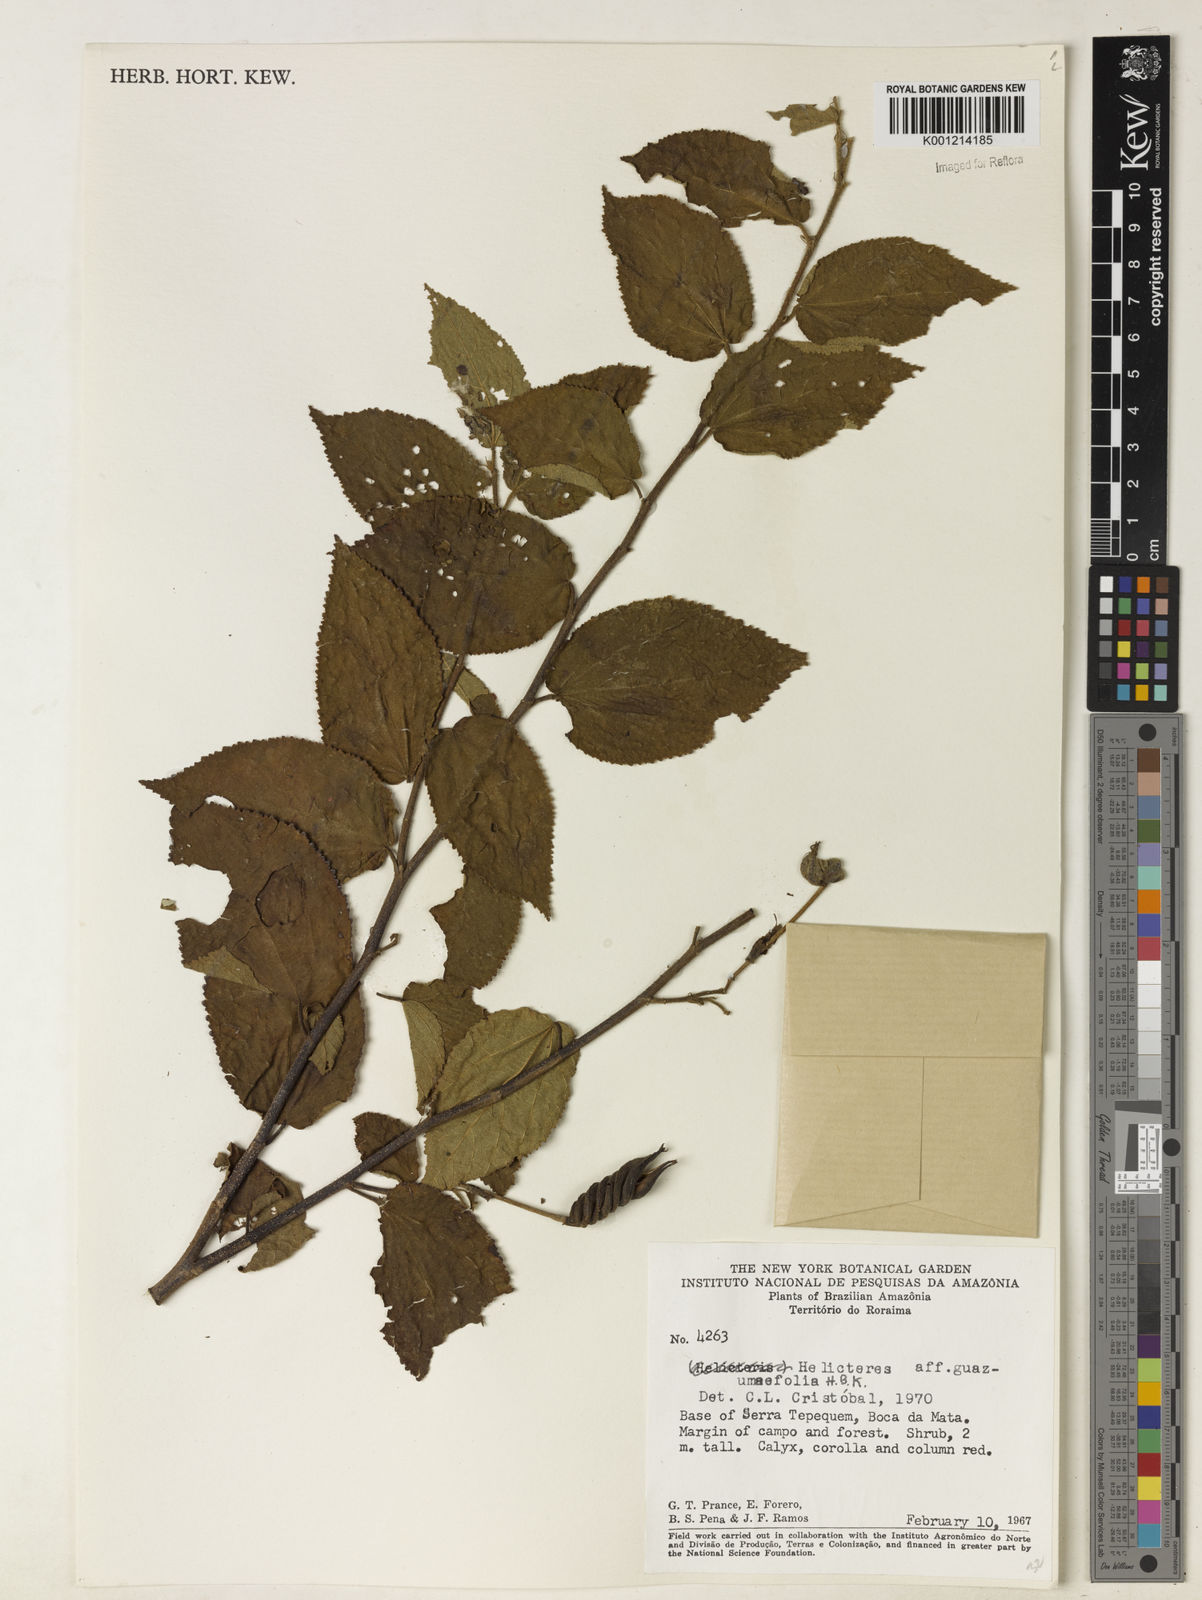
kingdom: Plantae
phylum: Tracheophyta
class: Magnoliopsida
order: Malvales
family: Malvaceae
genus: Helicteres
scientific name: Helicteres guazumifolia
